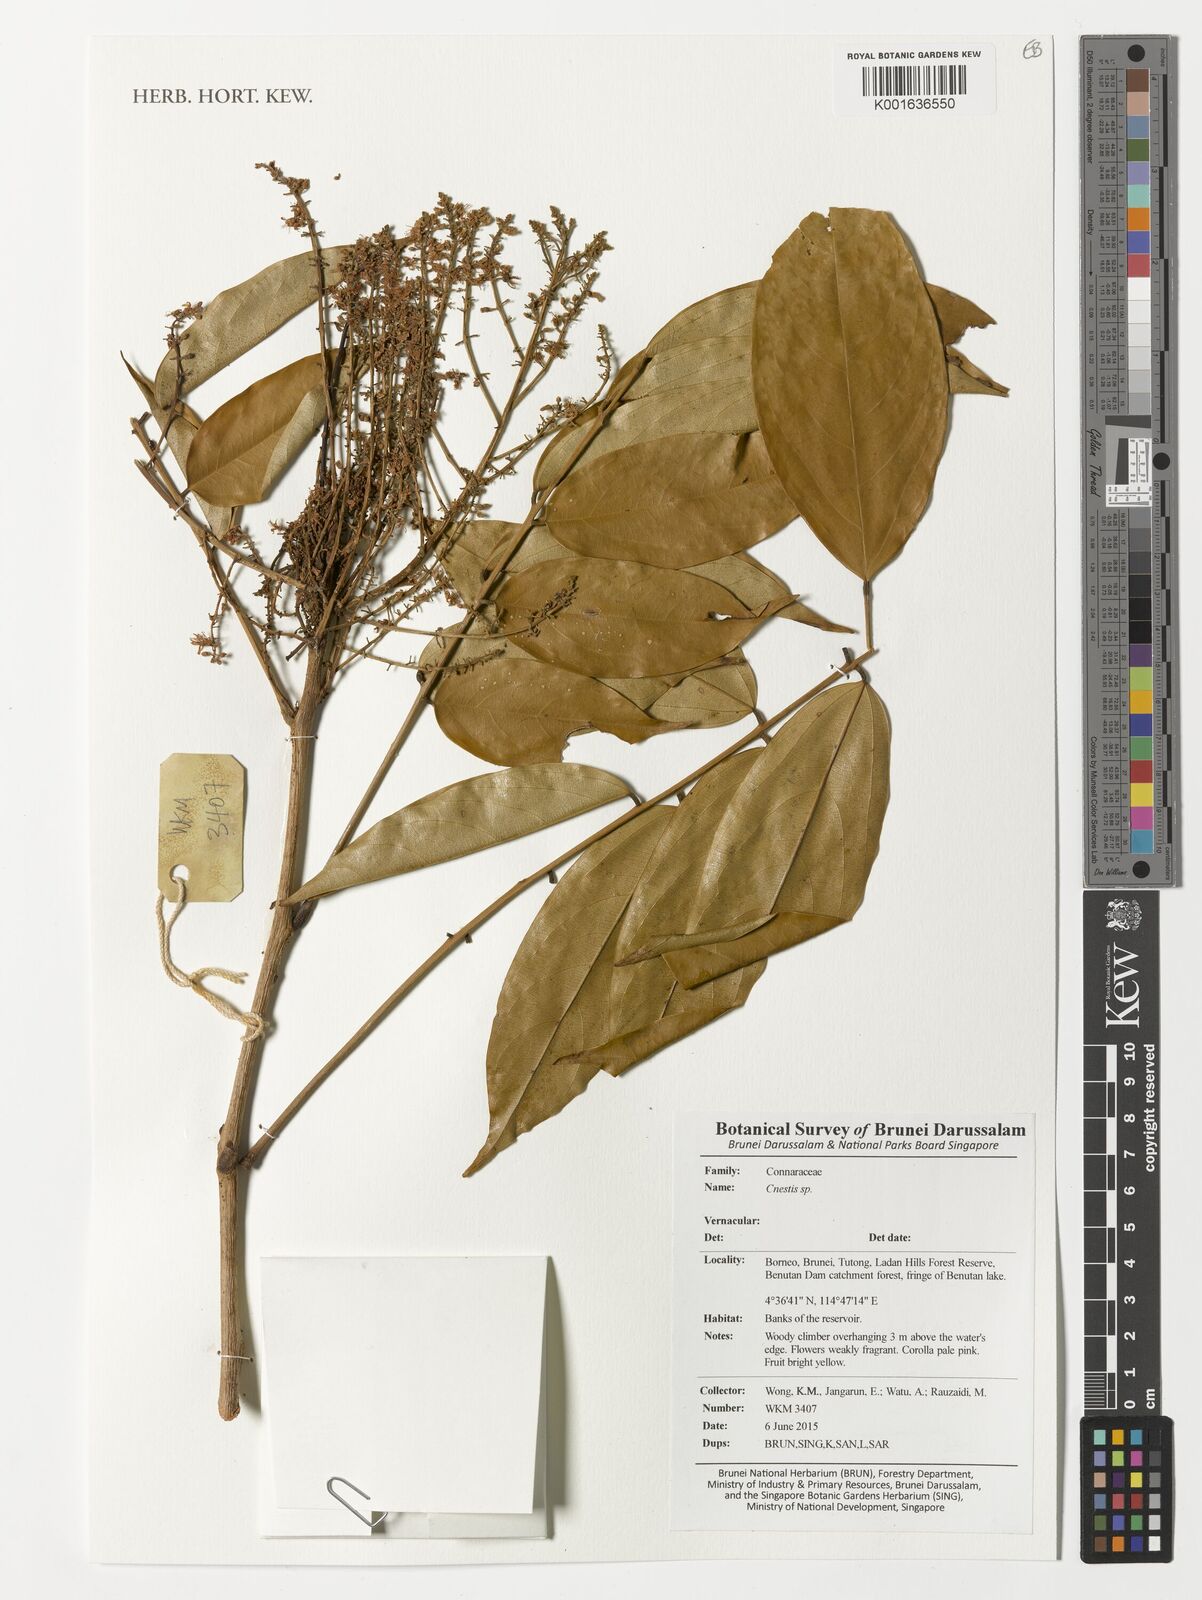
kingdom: Plantae
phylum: Tracheophyta
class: Magnoliopsida
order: Oxalidales
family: Connaraceae
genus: Cnestis
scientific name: Cnestis
